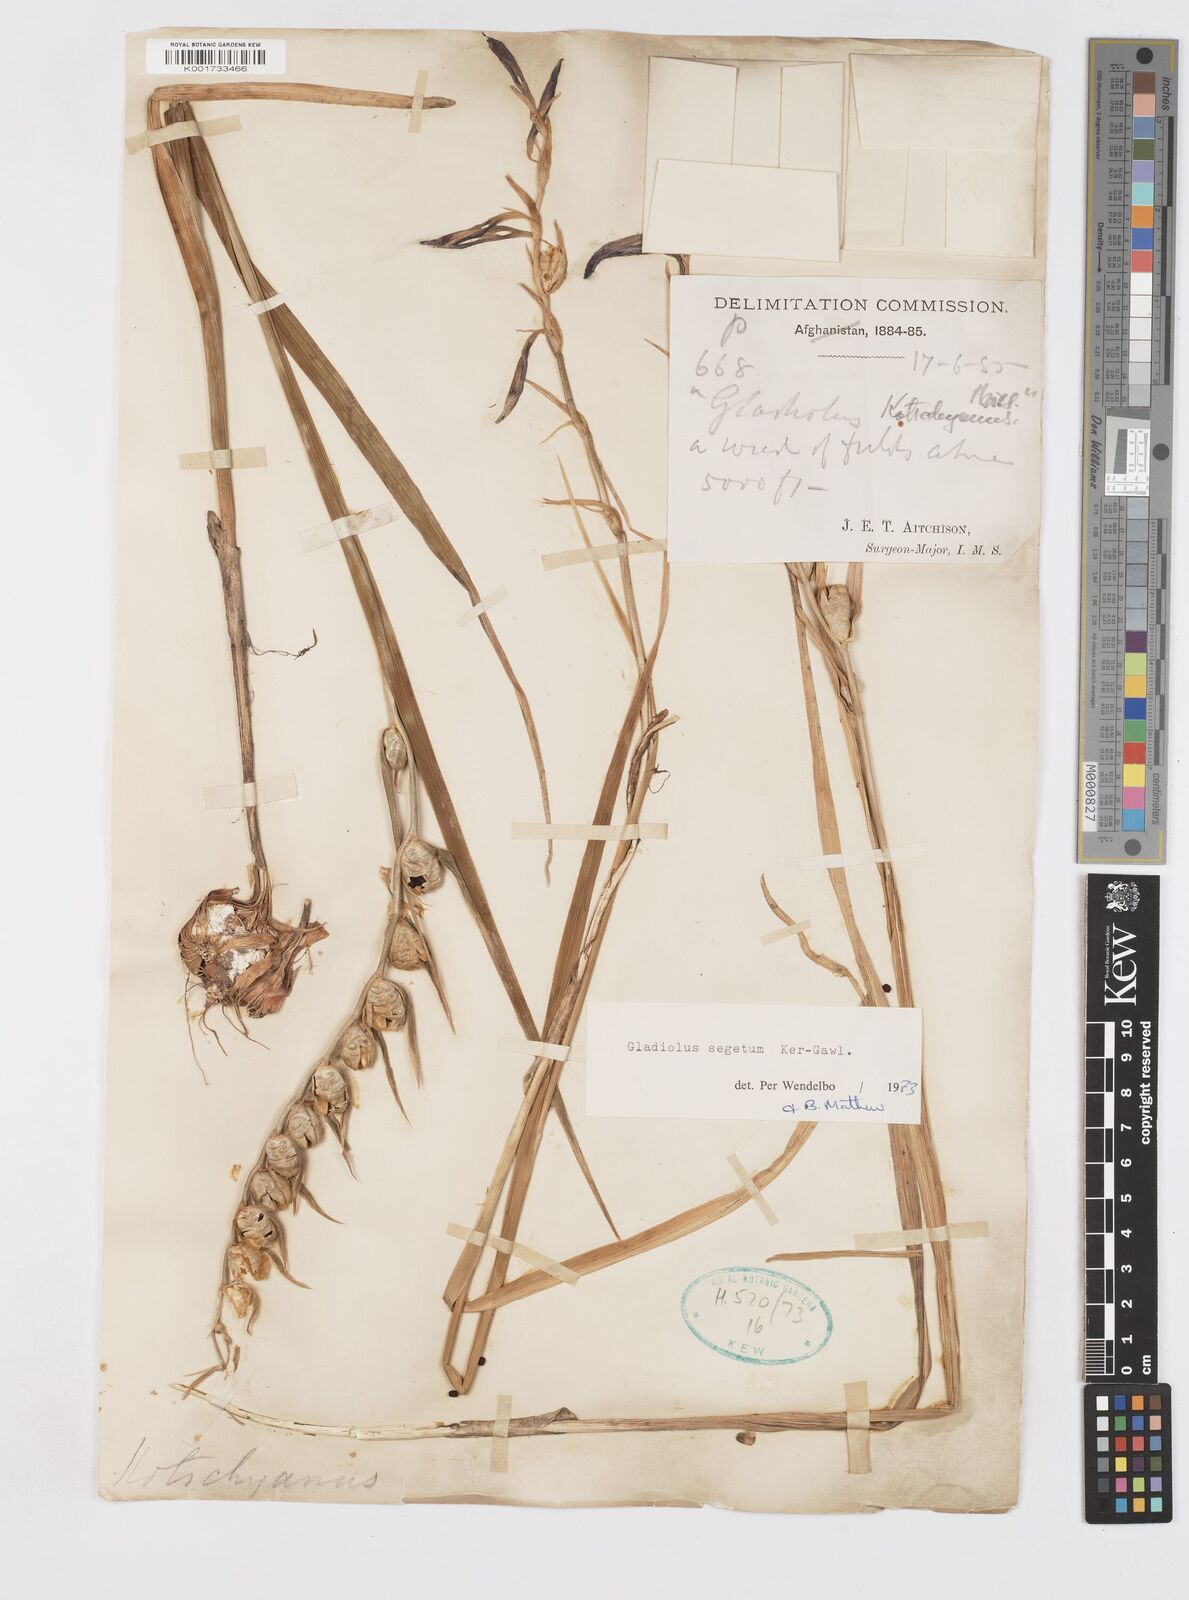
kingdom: Plantae
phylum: Tracheophyta
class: Liliopsida
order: Asparagales
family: Iridaceae
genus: Gladiolus
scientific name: Gladiolus italicus
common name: Field gladiolus
